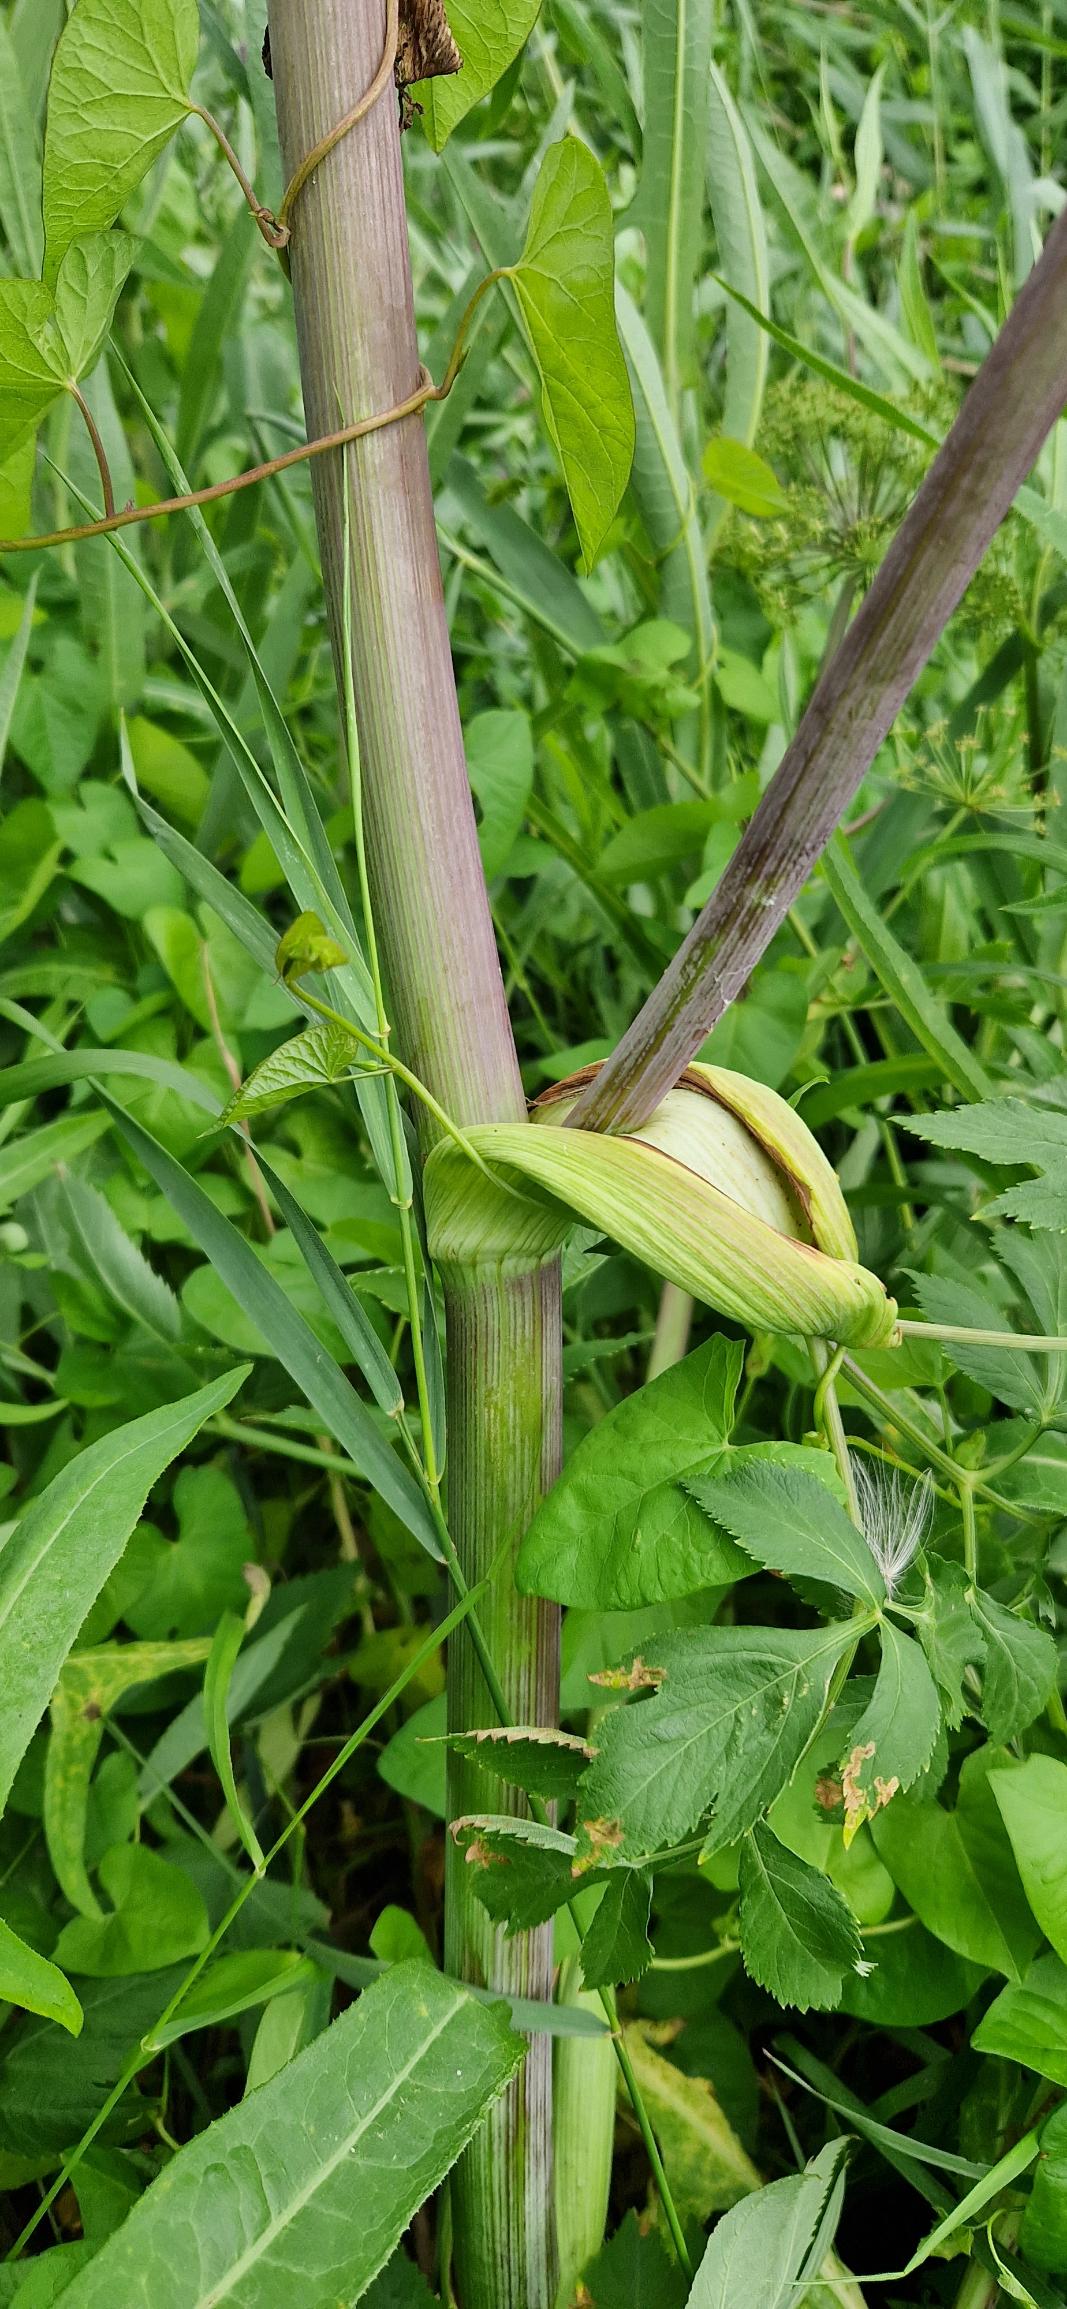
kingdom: Plantae
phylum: Tracheophyta
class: Magnoliopsida
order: Apiales
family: Apiaceae
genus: Angelica
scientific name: Angelica archangelica
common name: Kvan
